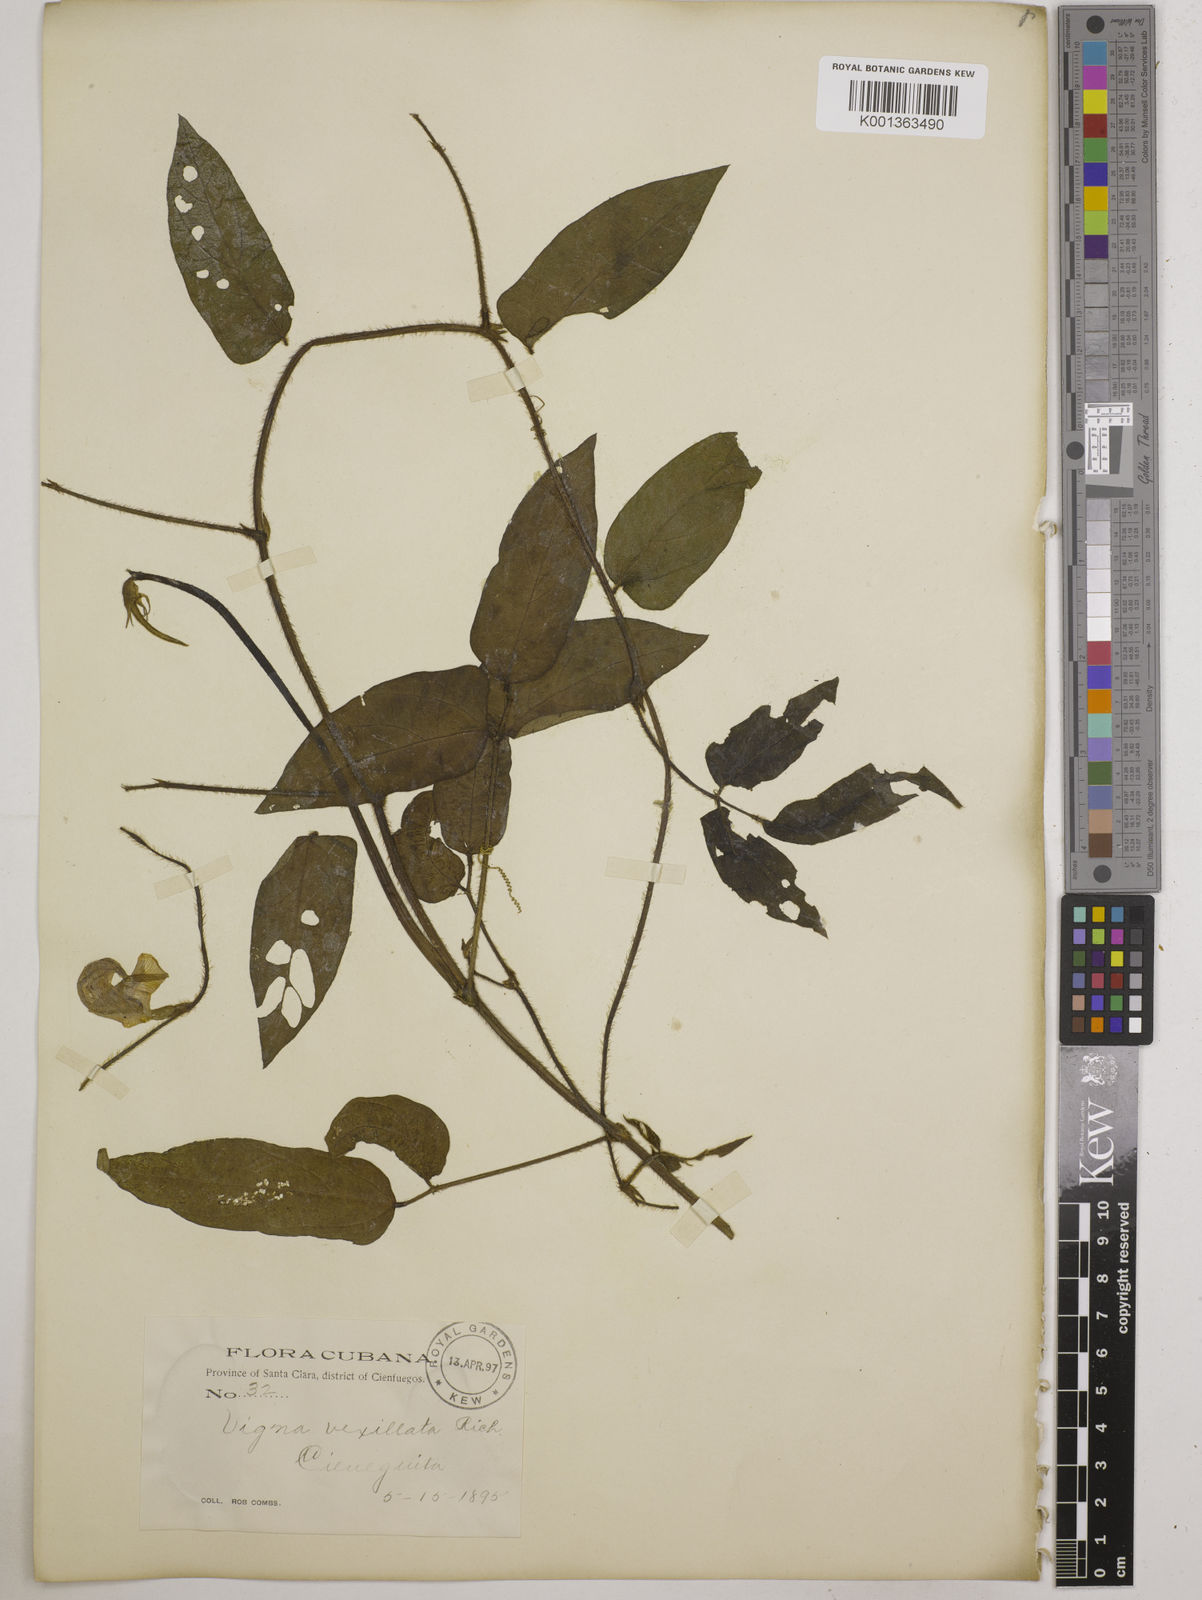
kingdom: Plantae
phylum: Tracheophyta
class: Magnoliopsida
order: Fabales
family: Fabaceae
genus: Vigna
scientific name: Vigna vexillata
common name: Zombi pea
